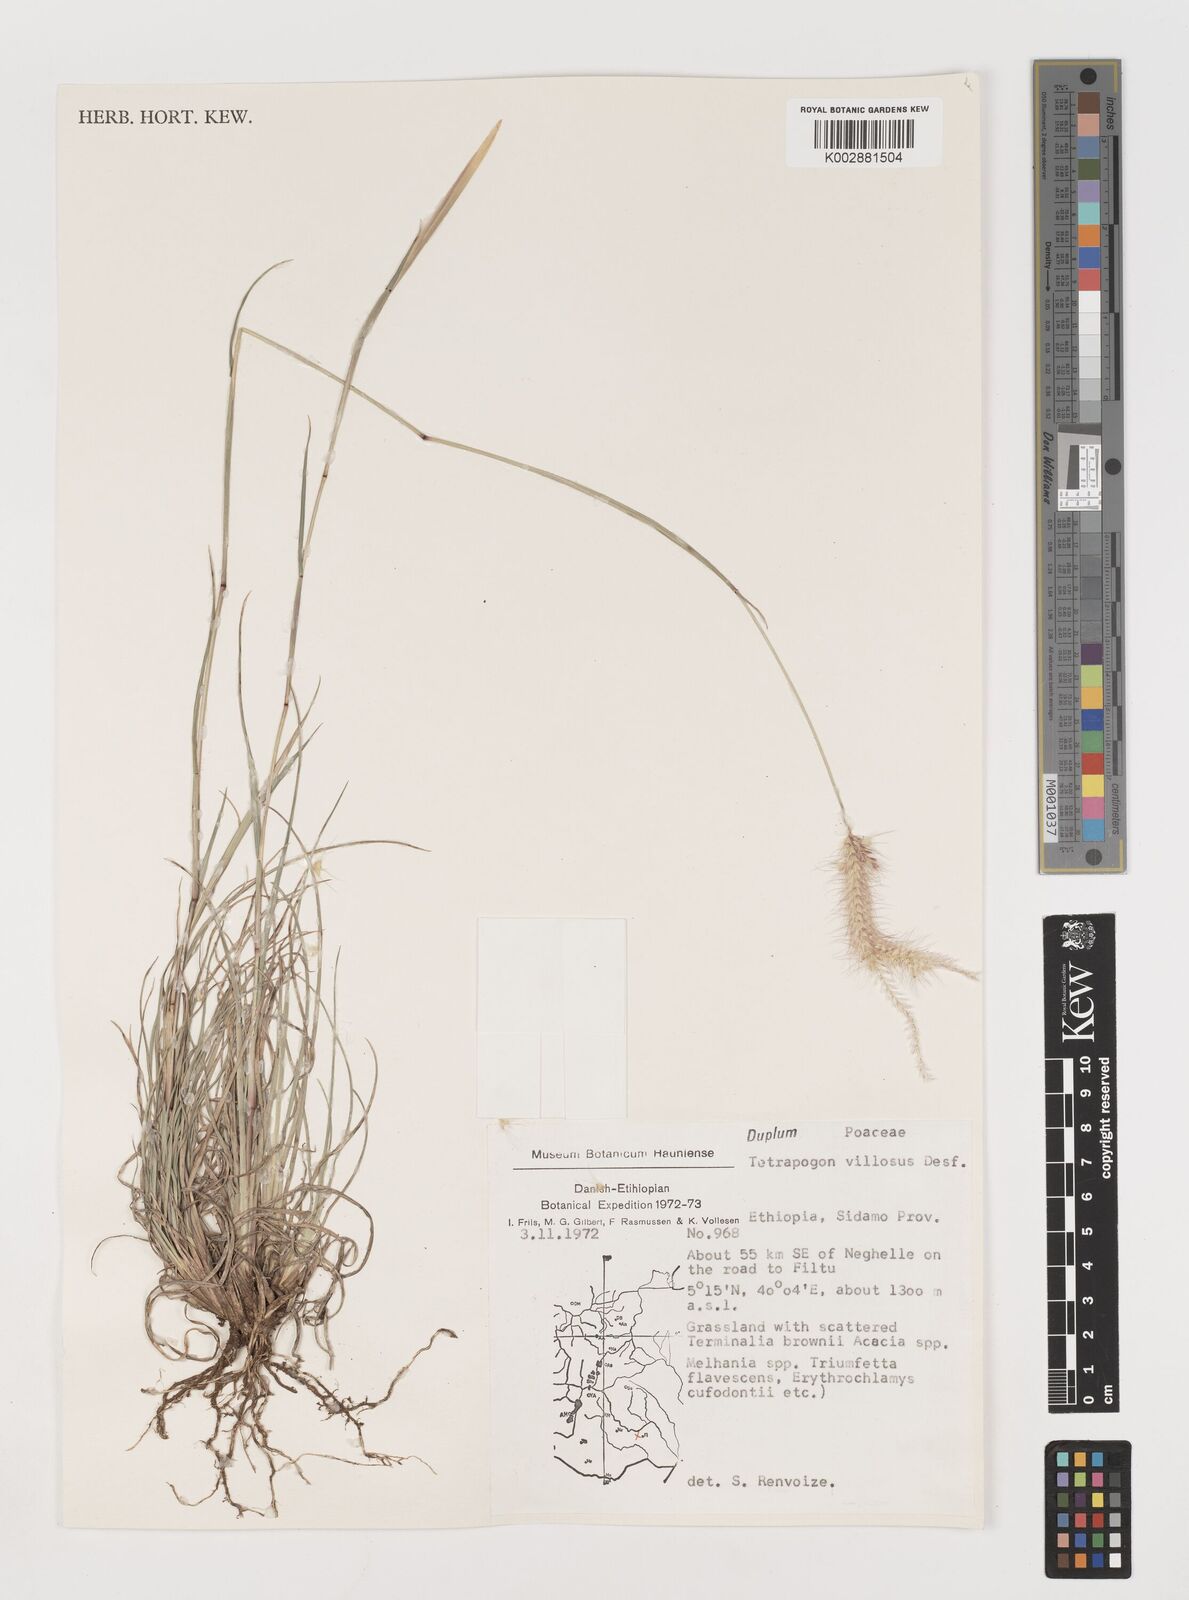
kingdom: Plantae
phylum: Tracheophyta
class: Liliopsida
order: Poales
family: Poaceae
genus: Tetrapogon
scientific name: Tetrapogon villosus
